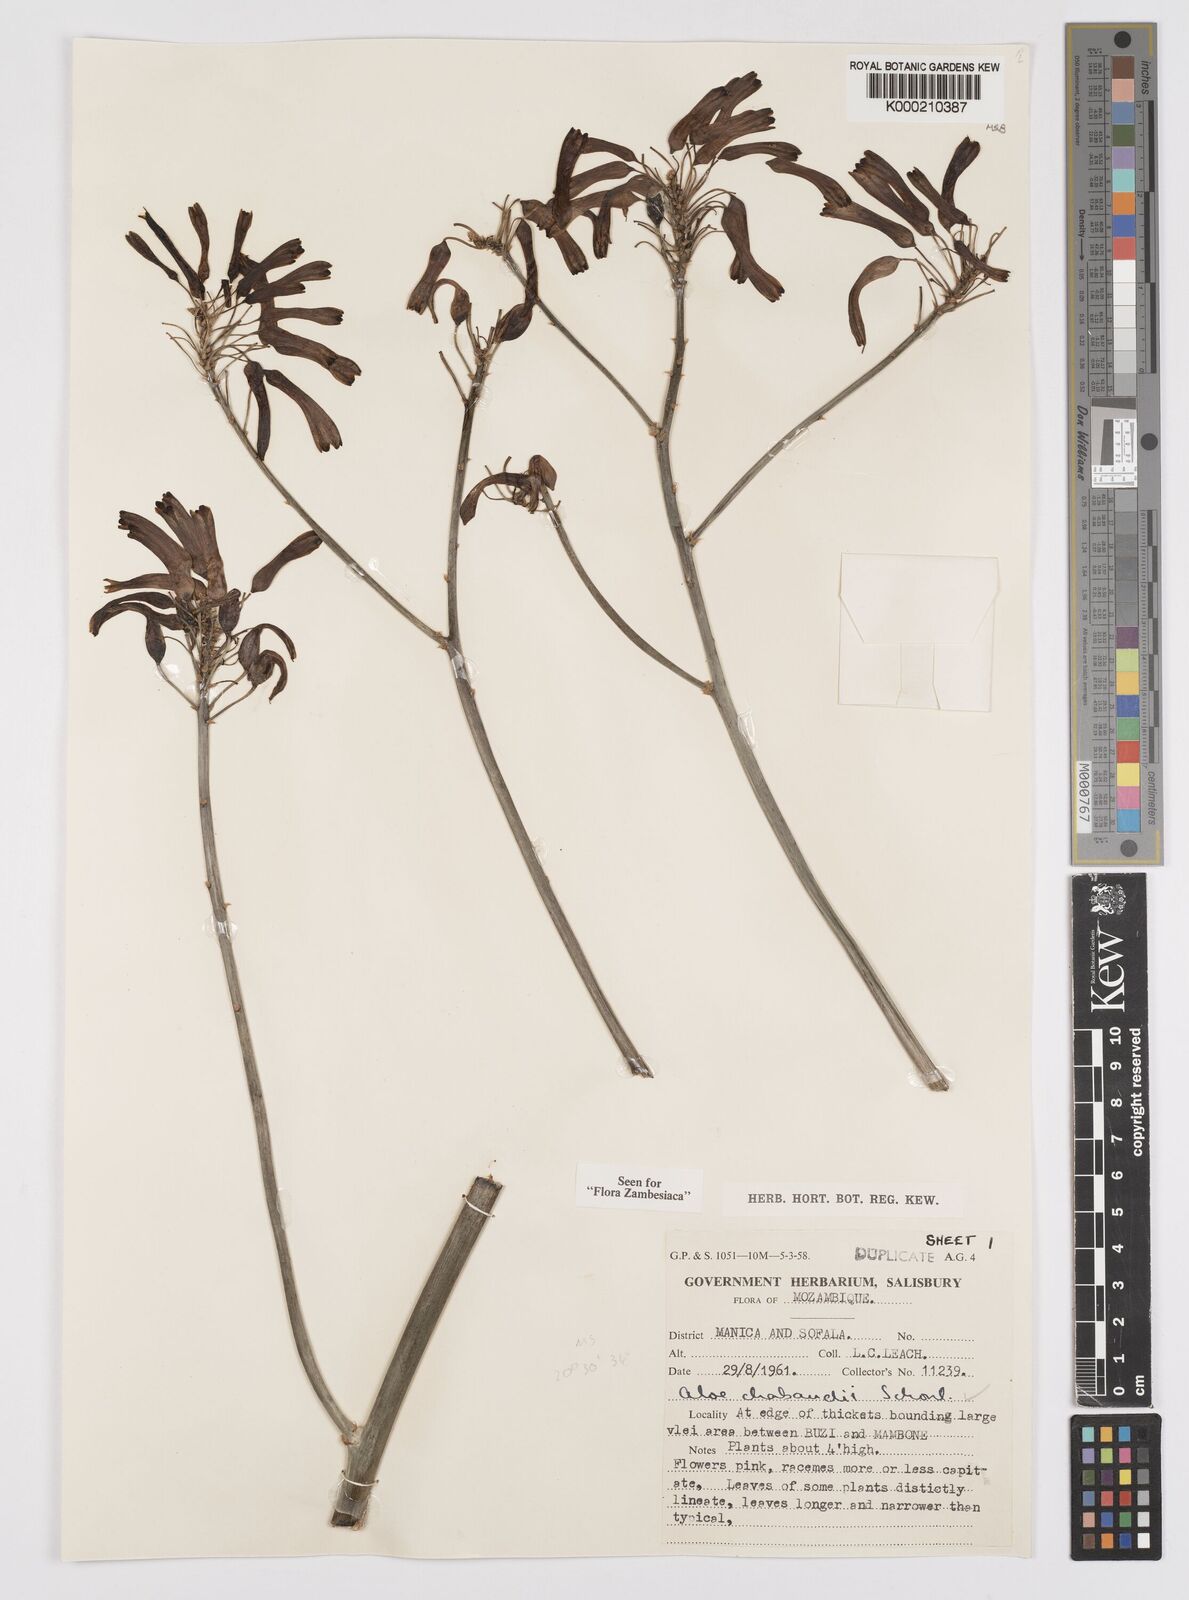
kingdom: Plantae
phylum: Tracheophyta
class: Liliopsida
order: Asparagales
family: Asphodelaceae
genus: Aloe
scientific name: Aloe chabaudii
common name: Chabaud's aloe
